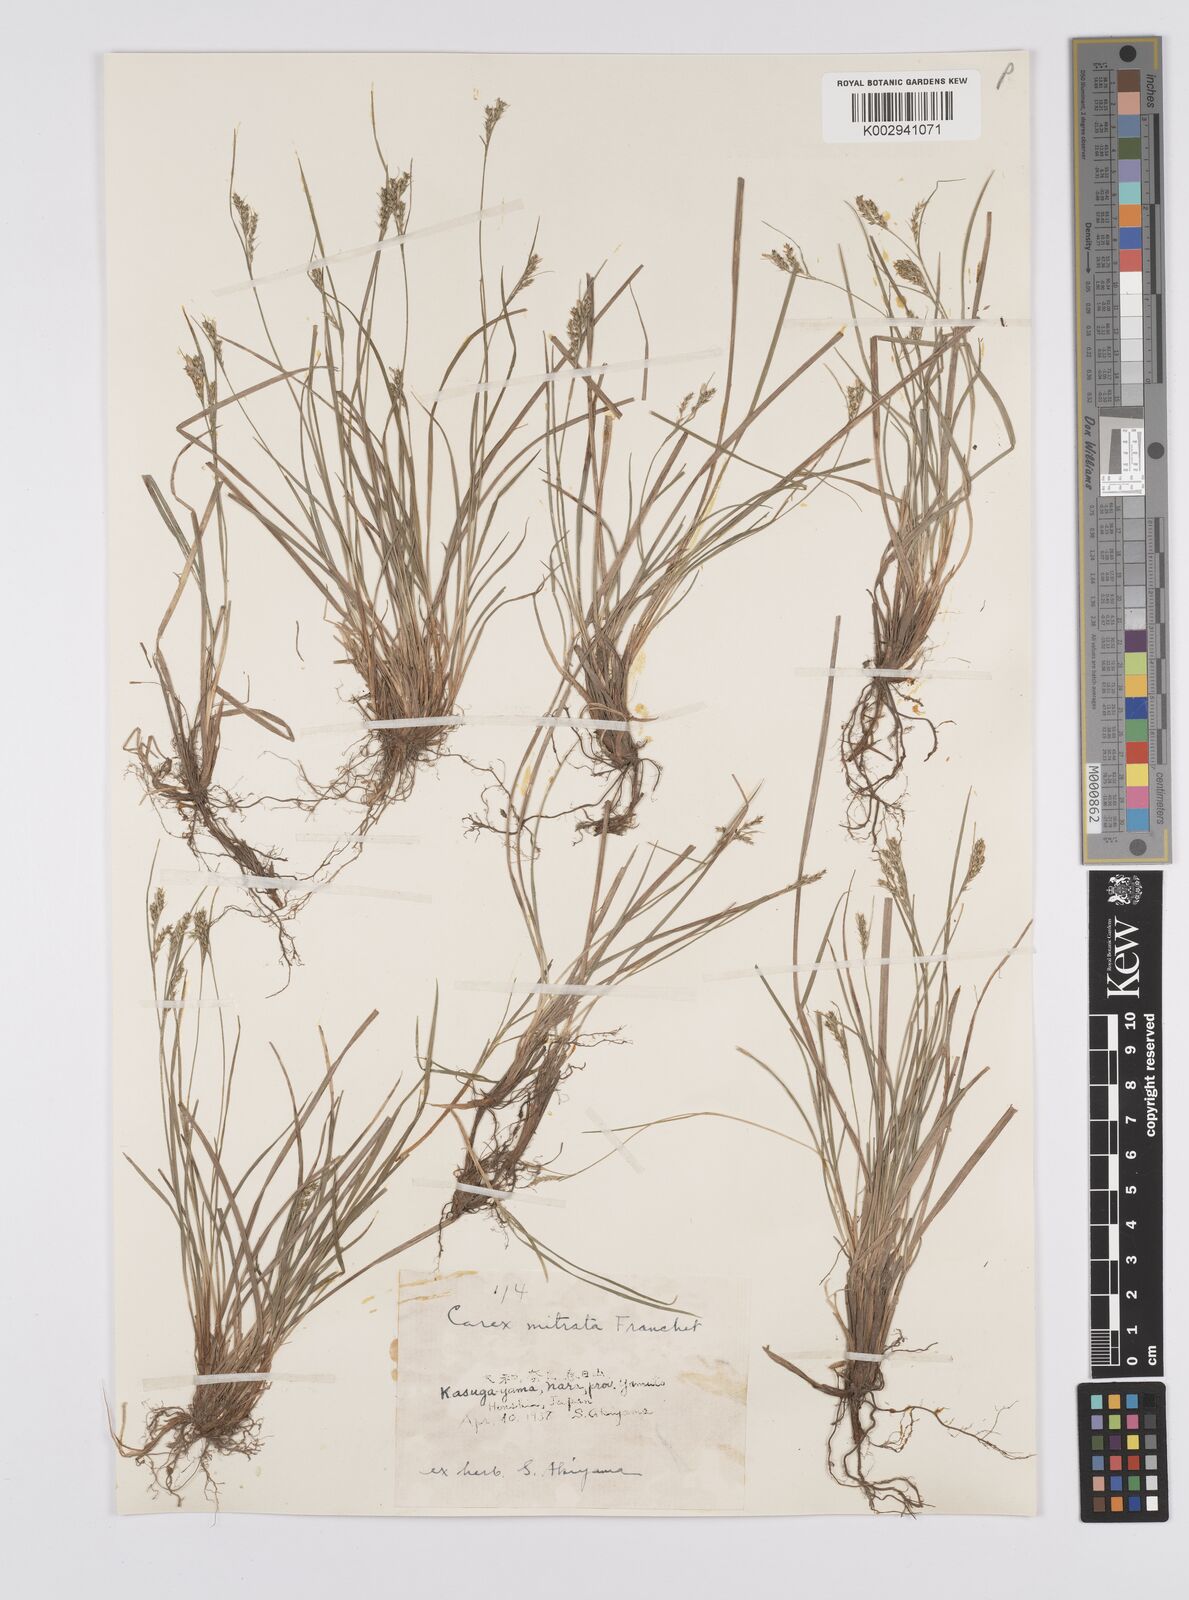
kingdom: Plantae
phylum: Tracheophyta
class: Liliopsida
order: Poales
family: Cyperaceae
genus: Carex
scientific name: Carex mitrata
